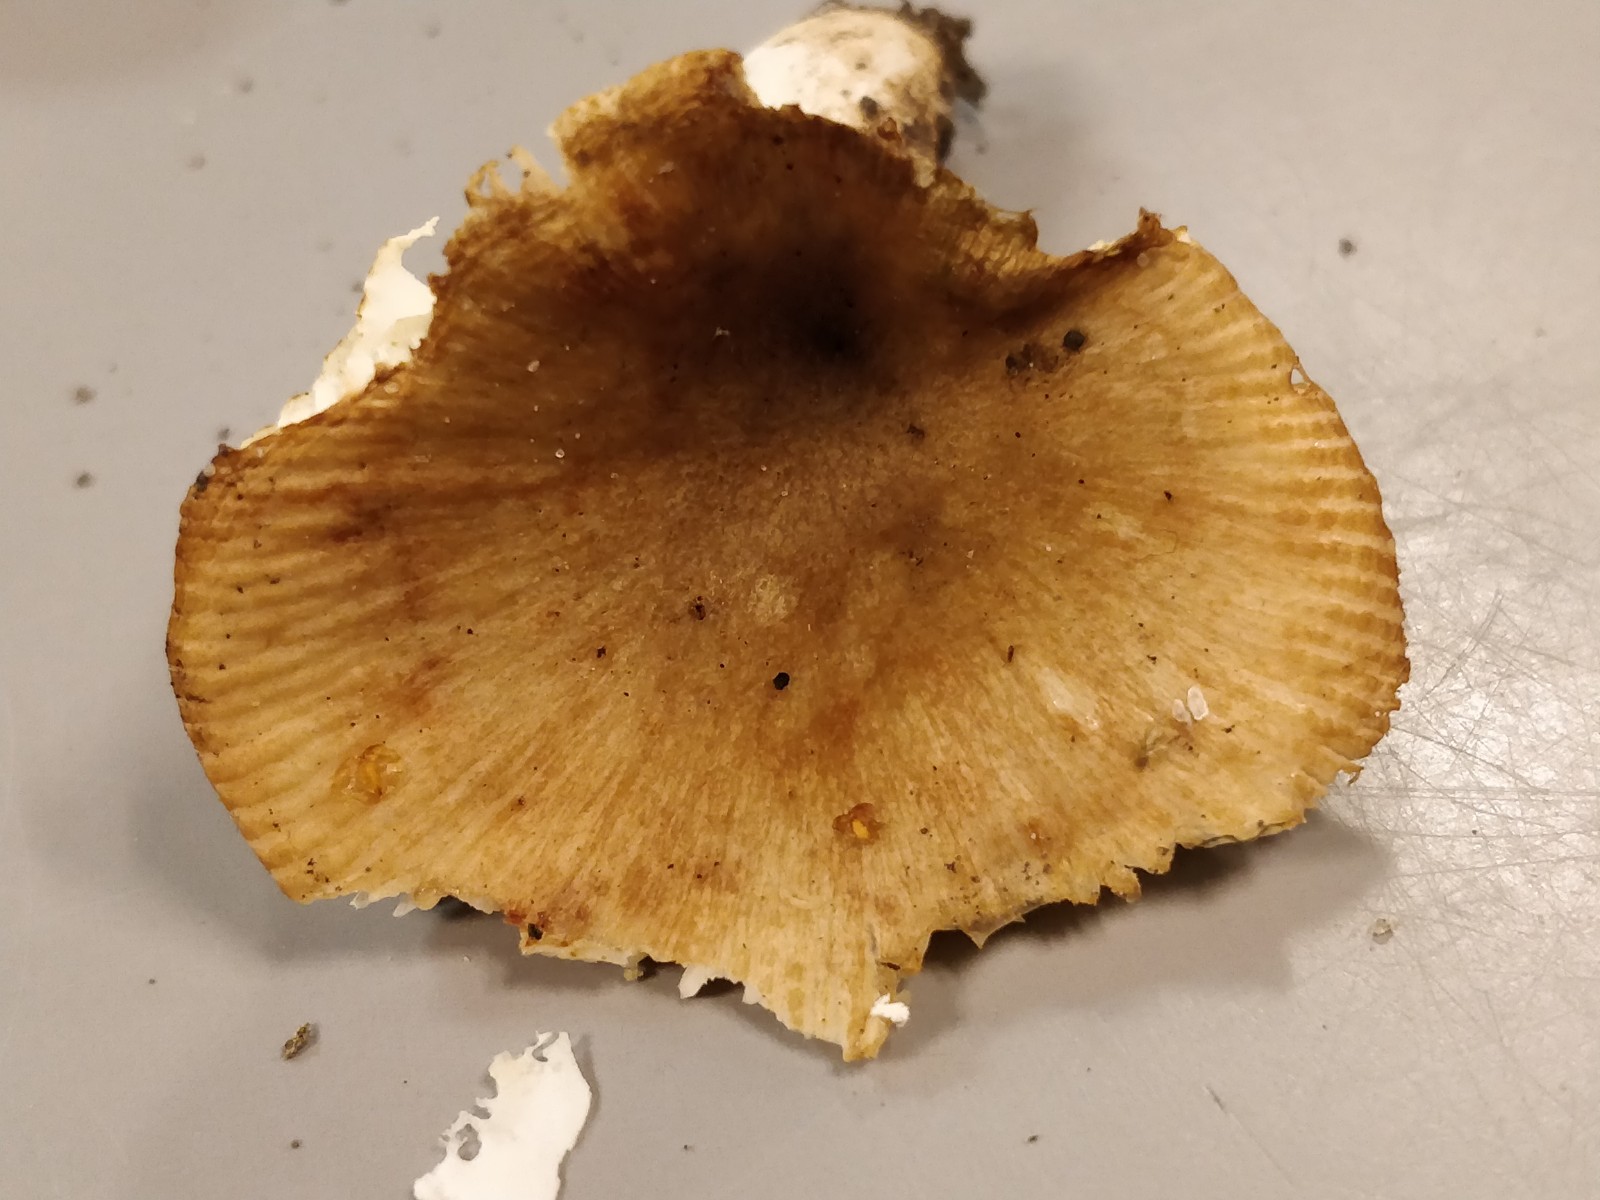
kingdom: Fungi
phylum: Basidiomycota
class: Agaricomycetes
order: Russulales
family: Russulaceae
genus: Russula
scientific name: Russula recondita
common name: mild kam-skørhat
